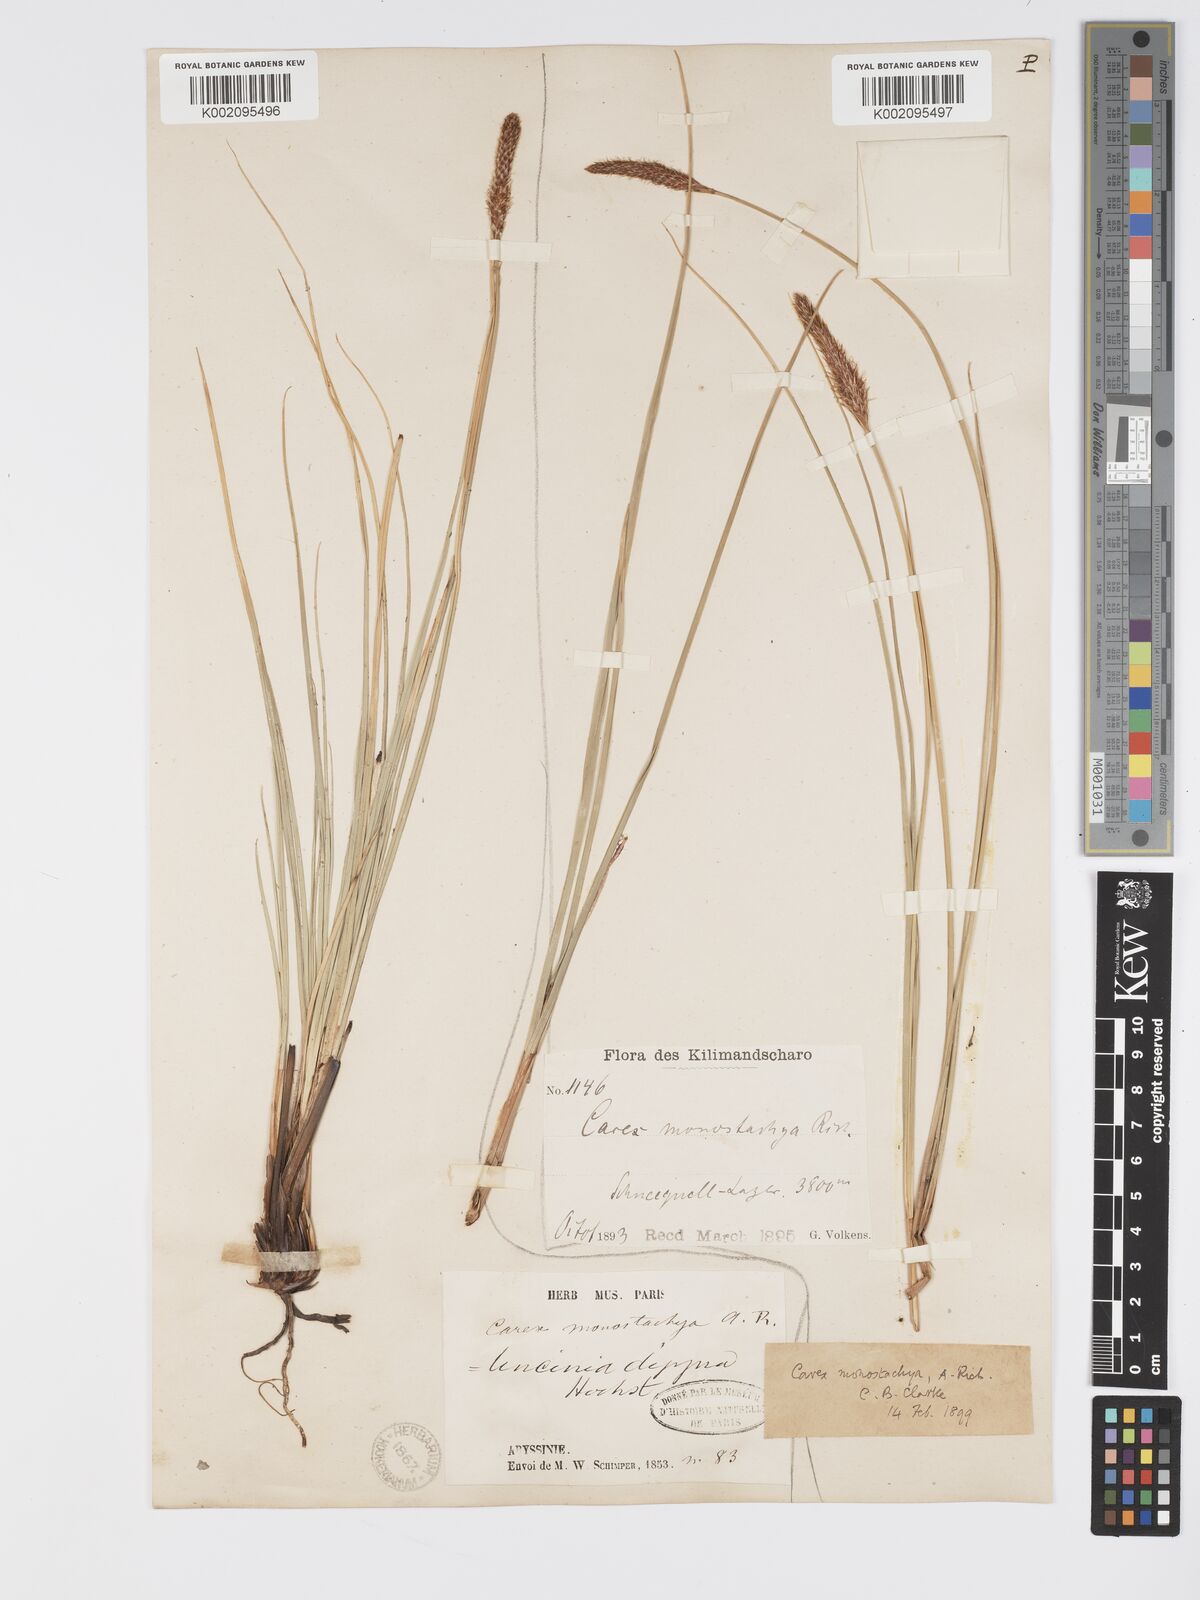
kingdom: Plantae
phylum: Tracheophyta
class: Liliopsida
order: Poales
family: Cyperaceae
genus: Carex
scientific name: Carex monostachya
